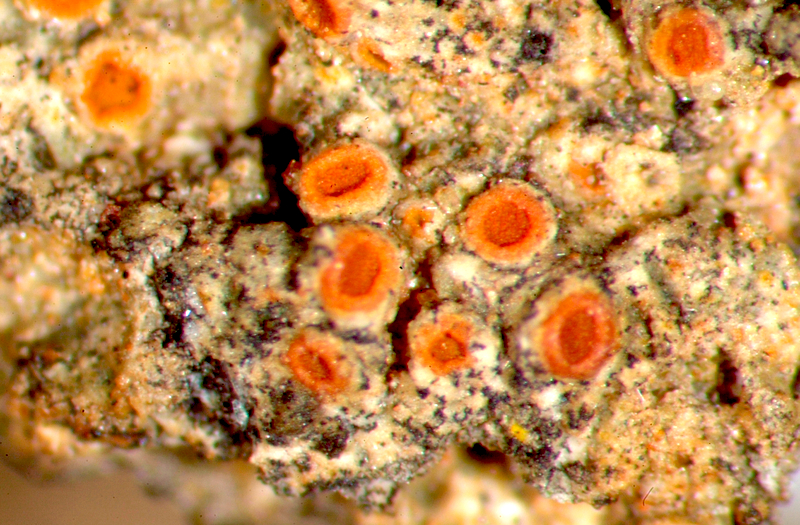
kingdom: Fungi
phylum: Ascomycota
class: Lecanoromycetes
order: Caliciales
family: Caliciaceae
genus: Amandinea
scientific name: Amandinea extenuata
